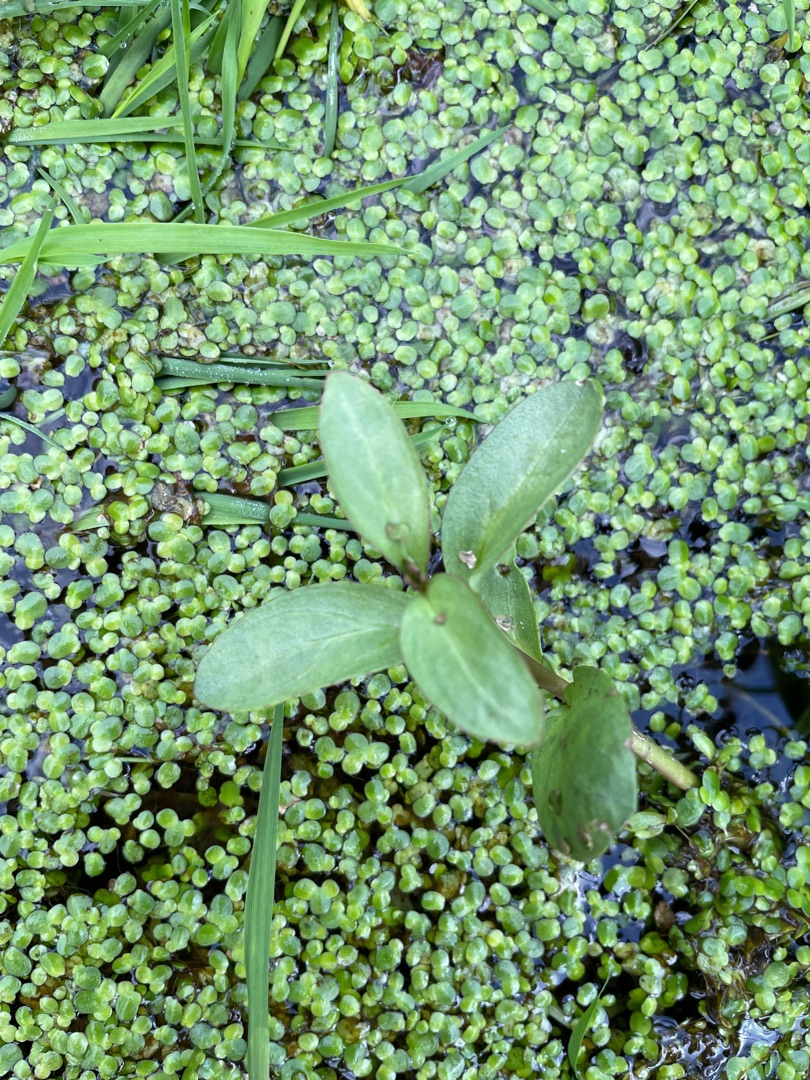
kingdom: Plantae
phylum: Tracheophyta
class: Magnoliopsida
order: Lamiales
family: Plantaginaceae
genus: Veronica
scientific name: Veronica beccabunga
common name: Tykbladet ærenpris
